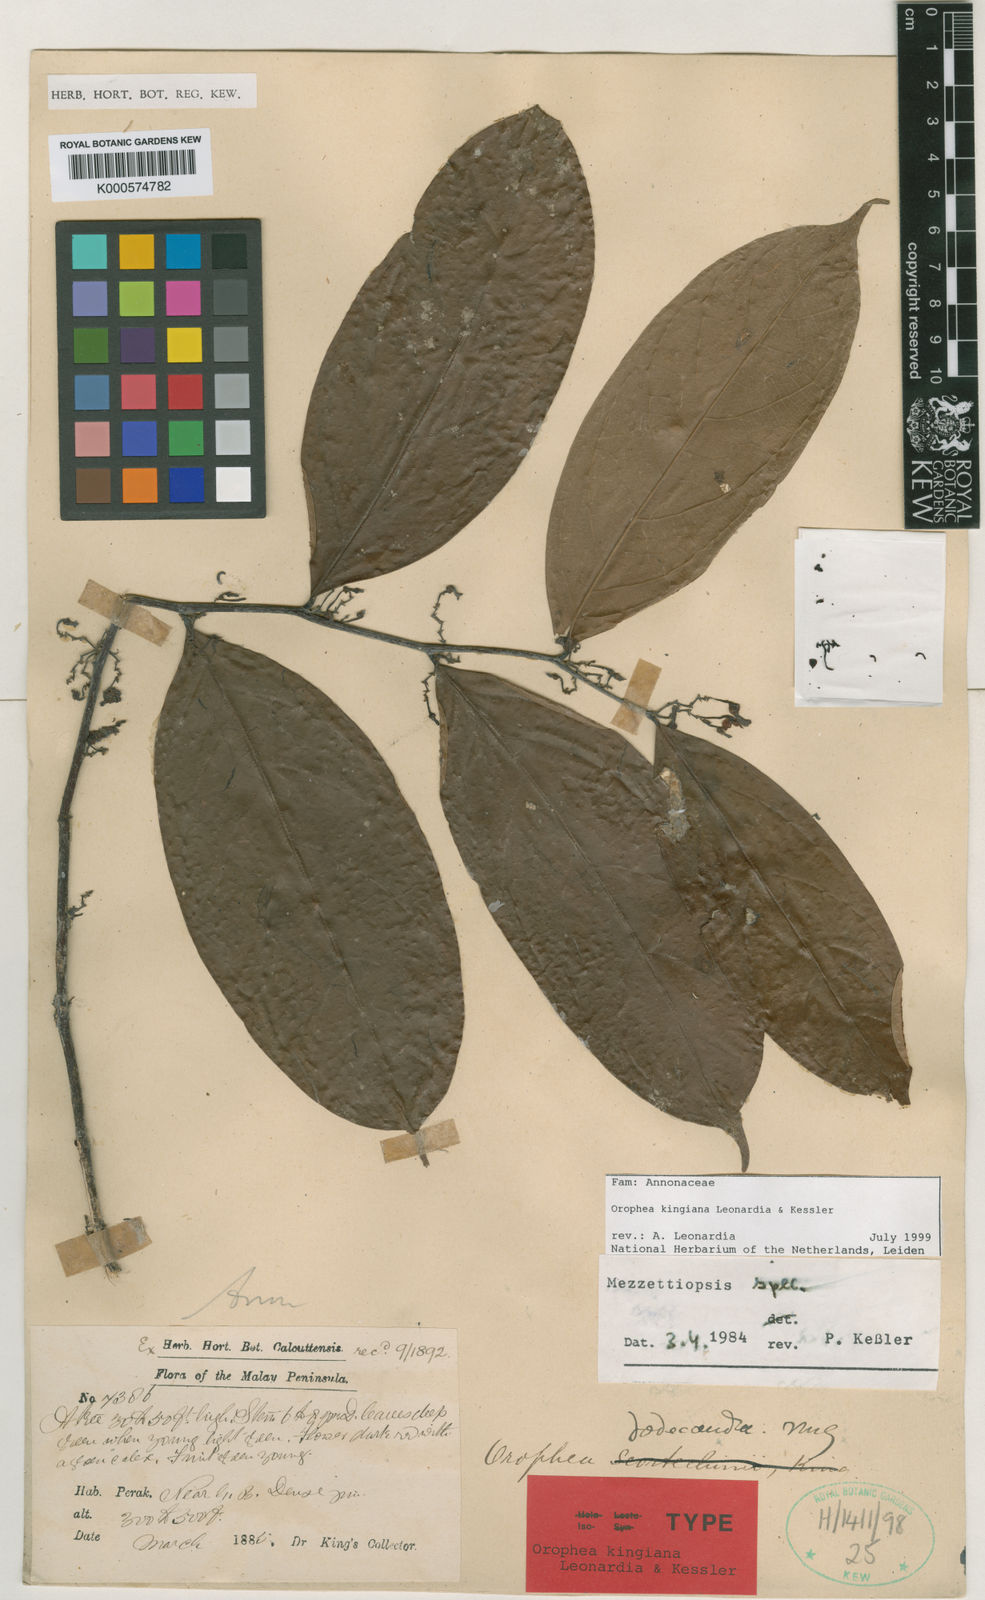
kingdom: Plantae
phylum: Tracheophyta
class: Magnoliopsida
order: Magnoliales
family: Annonaceae
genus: Orophea
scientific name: Orophea
